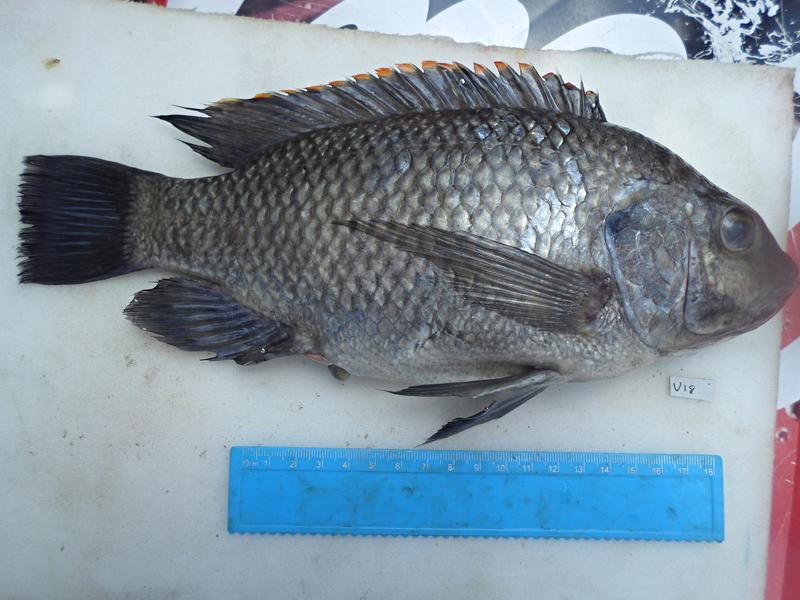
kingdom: Animalia
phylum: Chordata
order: Perciformes
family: Cichlidae
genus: Oreochromis
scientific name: Oreochromis variabilis
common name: Victoria tilapia
